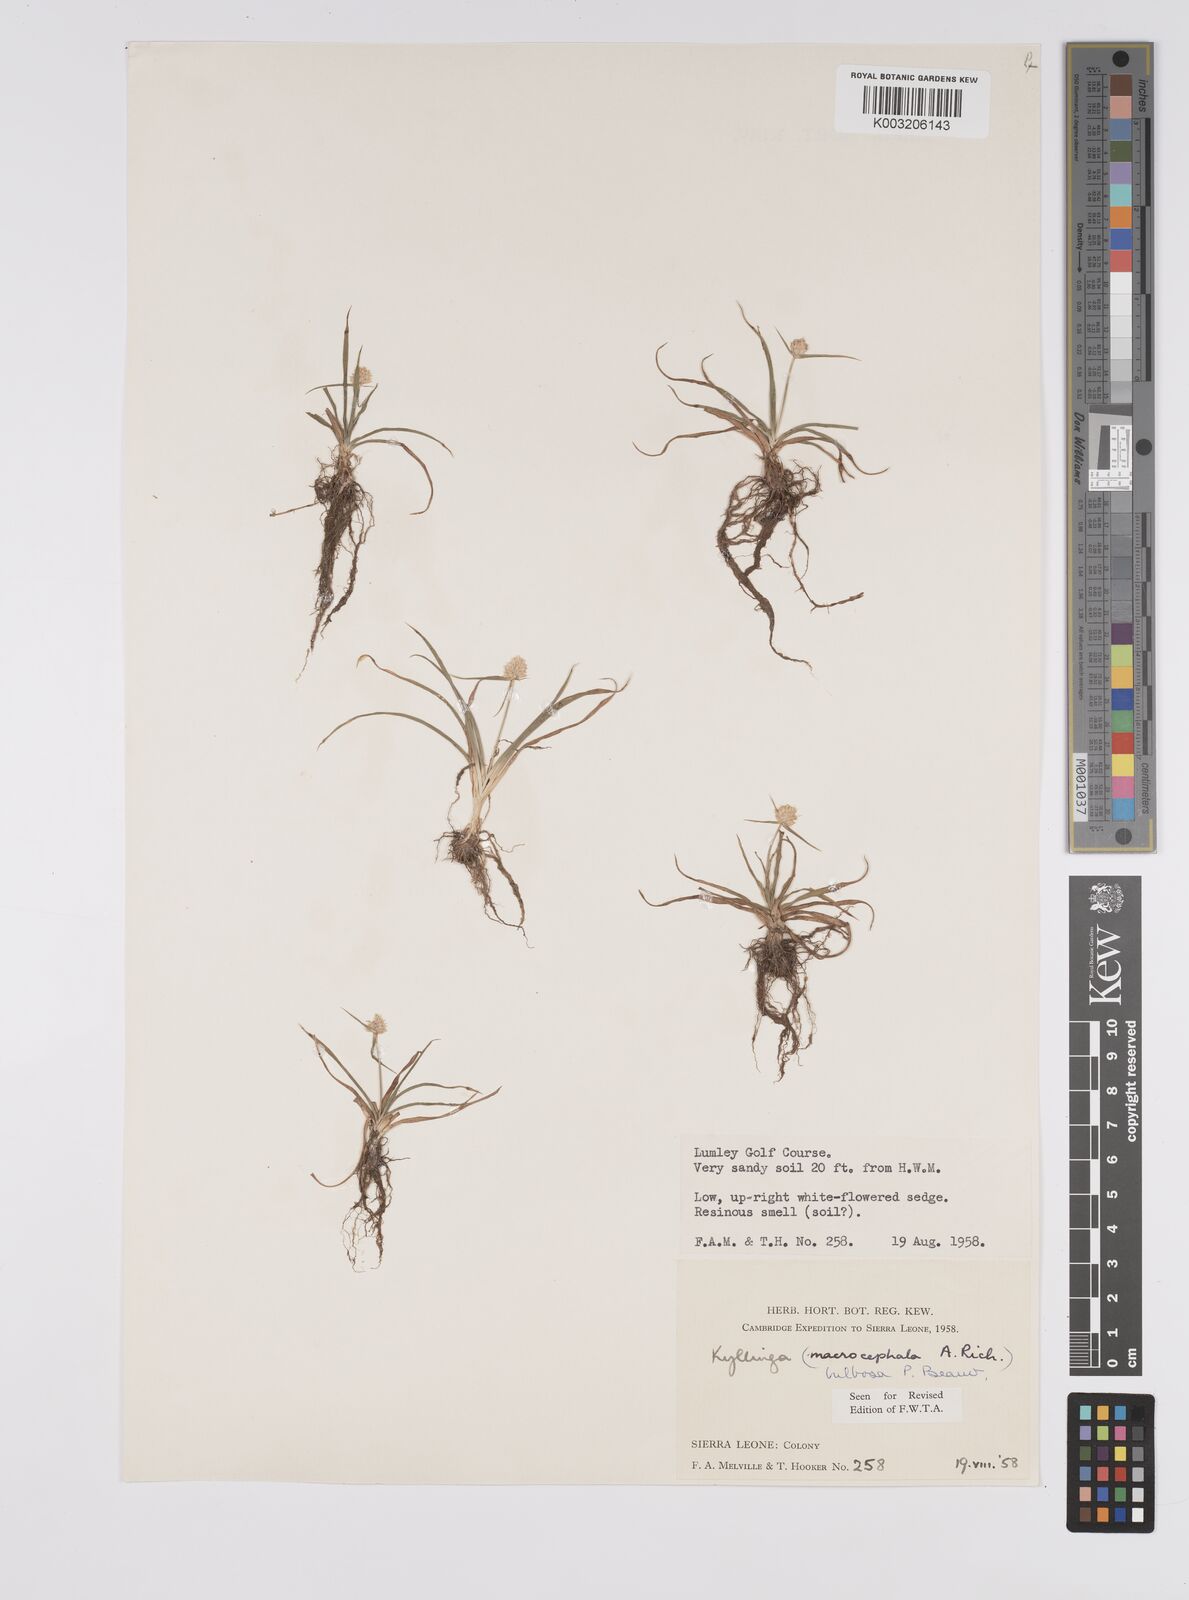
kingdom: Plantae
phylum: Tracheophyta
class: Liliopsida
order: Poales
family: Cyperaceae
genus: Cyperus
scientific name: Cyperus
